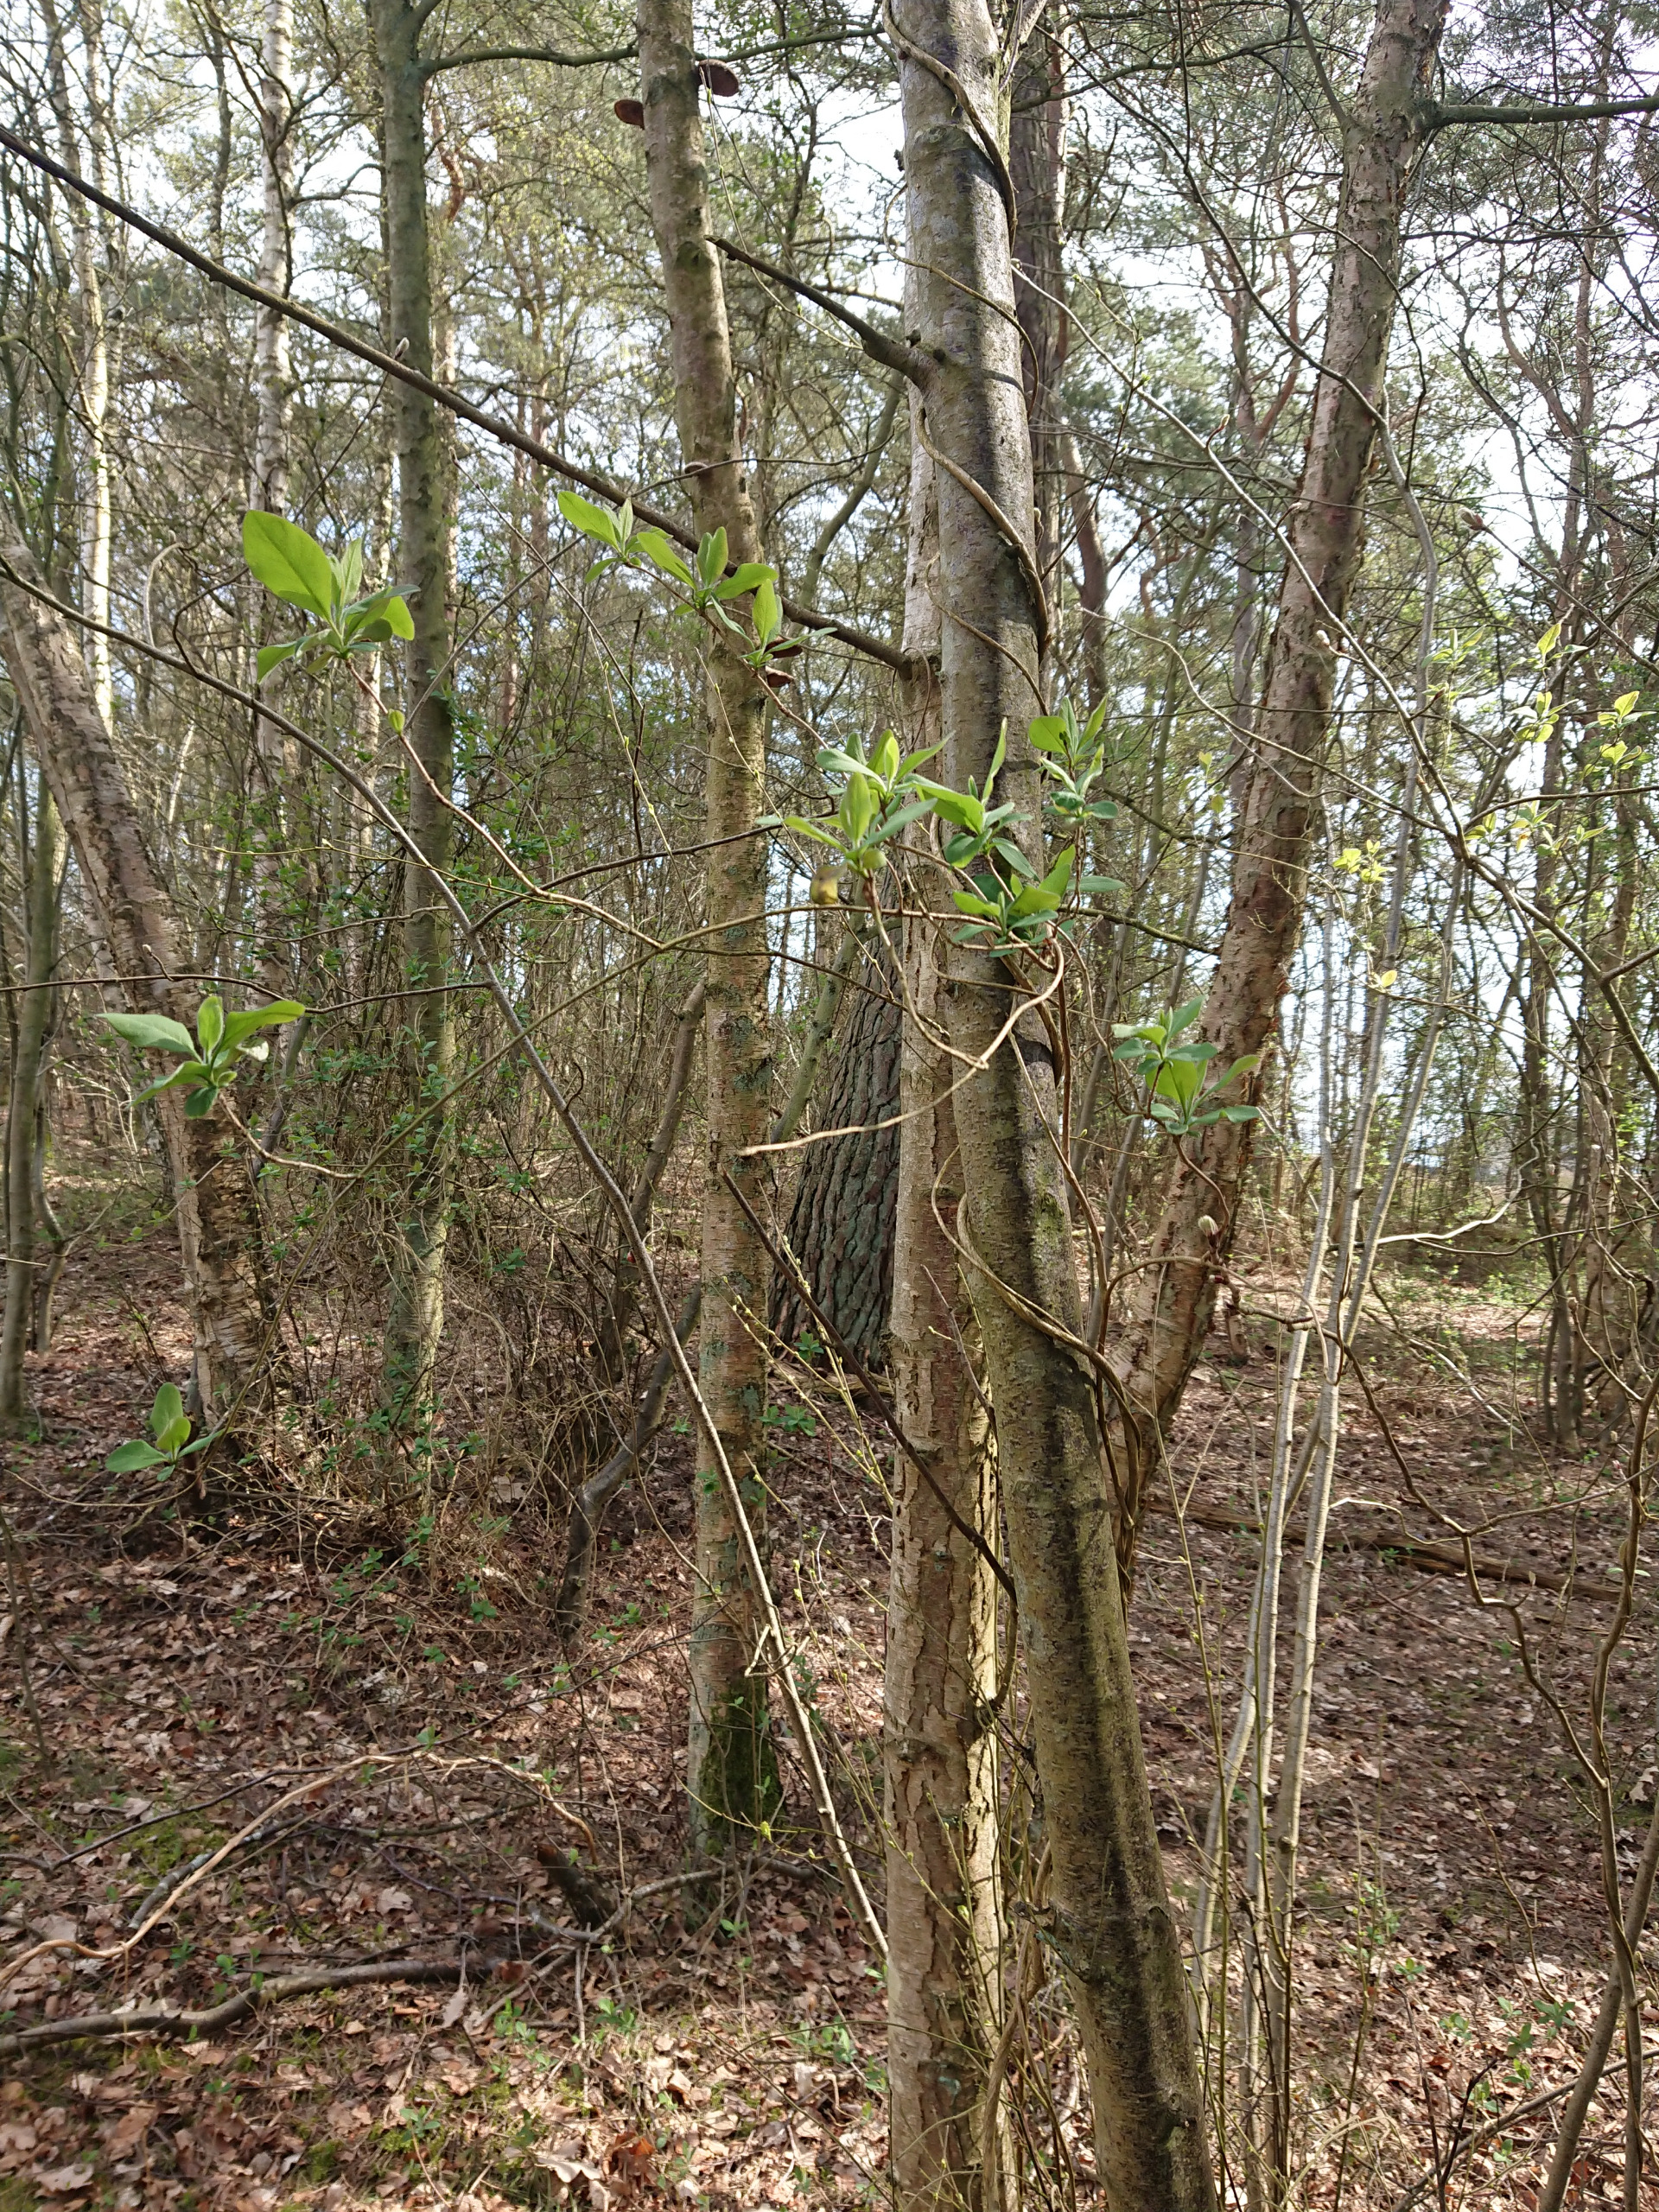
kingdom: Plantae
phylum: Tracheophyta
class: Magnoliopsida
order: Dipsacales
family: Caprifoliaceae
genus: Lonicera
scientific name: Lonicera periclymenum
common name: Almindelig gedeblad
